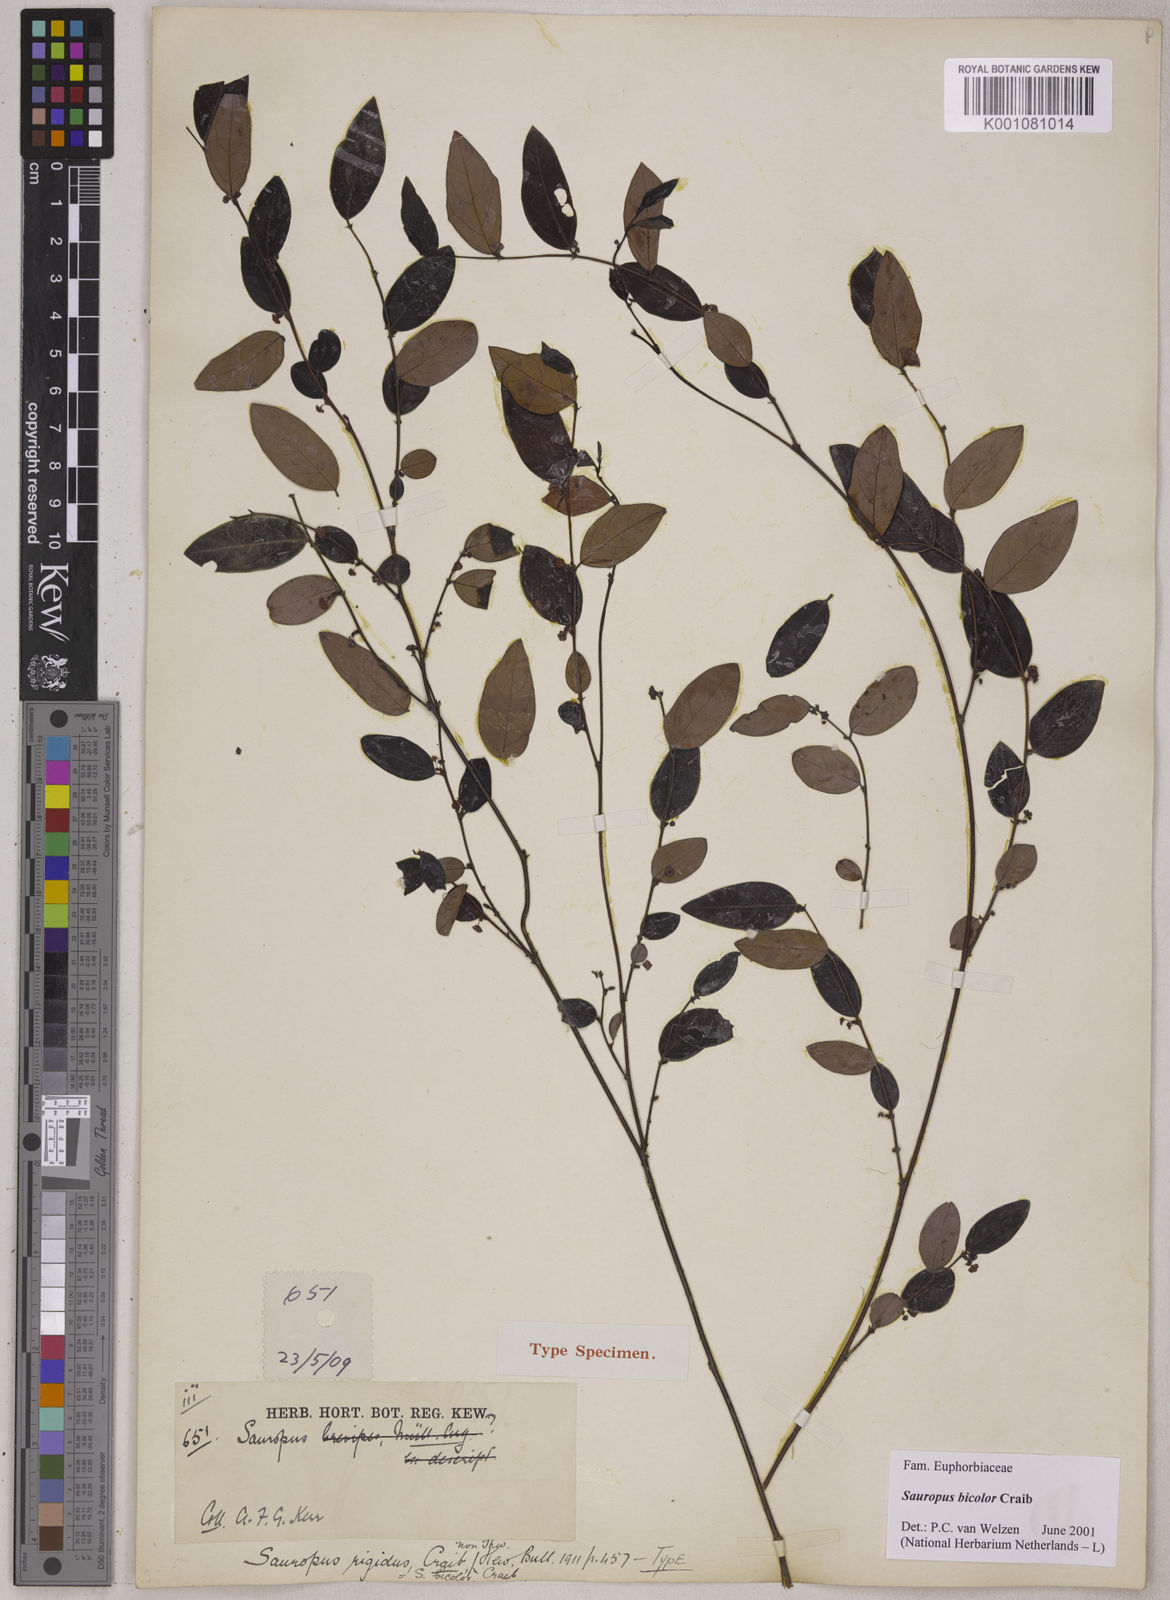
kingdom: Plantae
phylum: Tracheophyta
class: Magnoliopsida
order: Malpighiales
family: Phyllanthaceae
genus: Breynia
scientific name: Breynia bicolor
